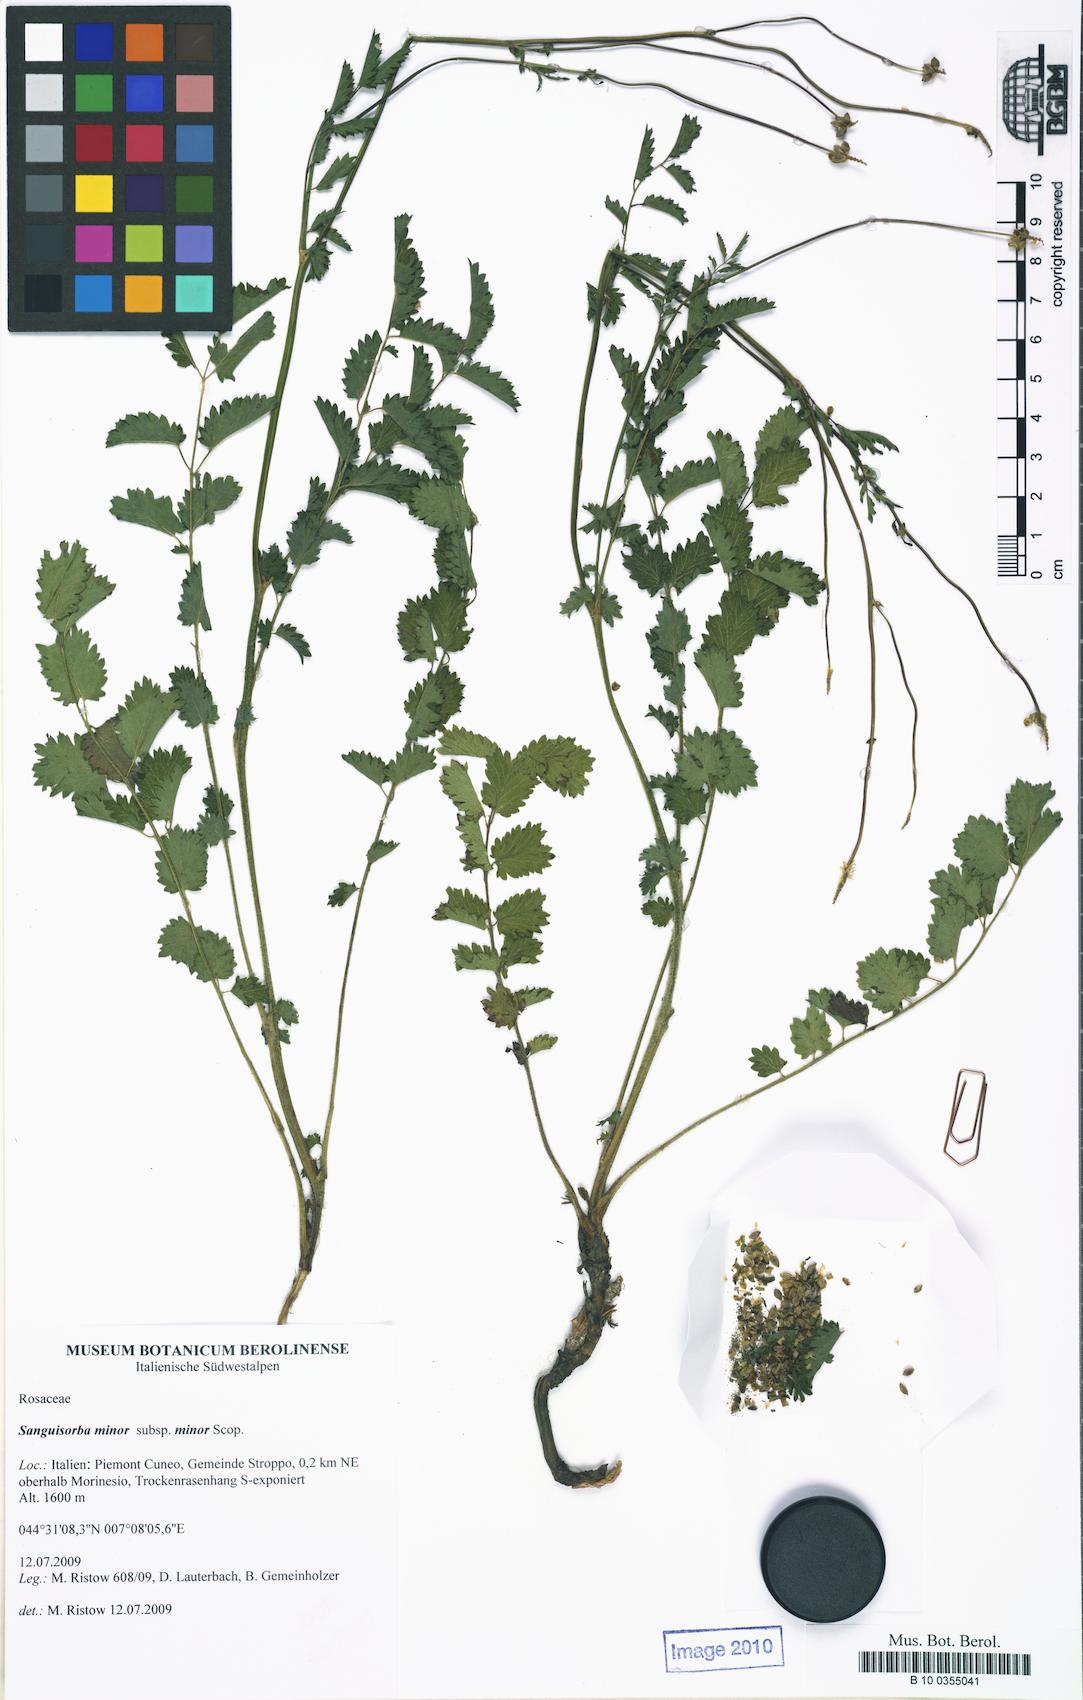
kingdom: Plantae
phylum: Tracheophyta
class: Magnoliopsida
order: Rosales
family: Rosaceae
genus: Poterium
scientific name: Poterium sanguisorba
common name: Salad burnet
